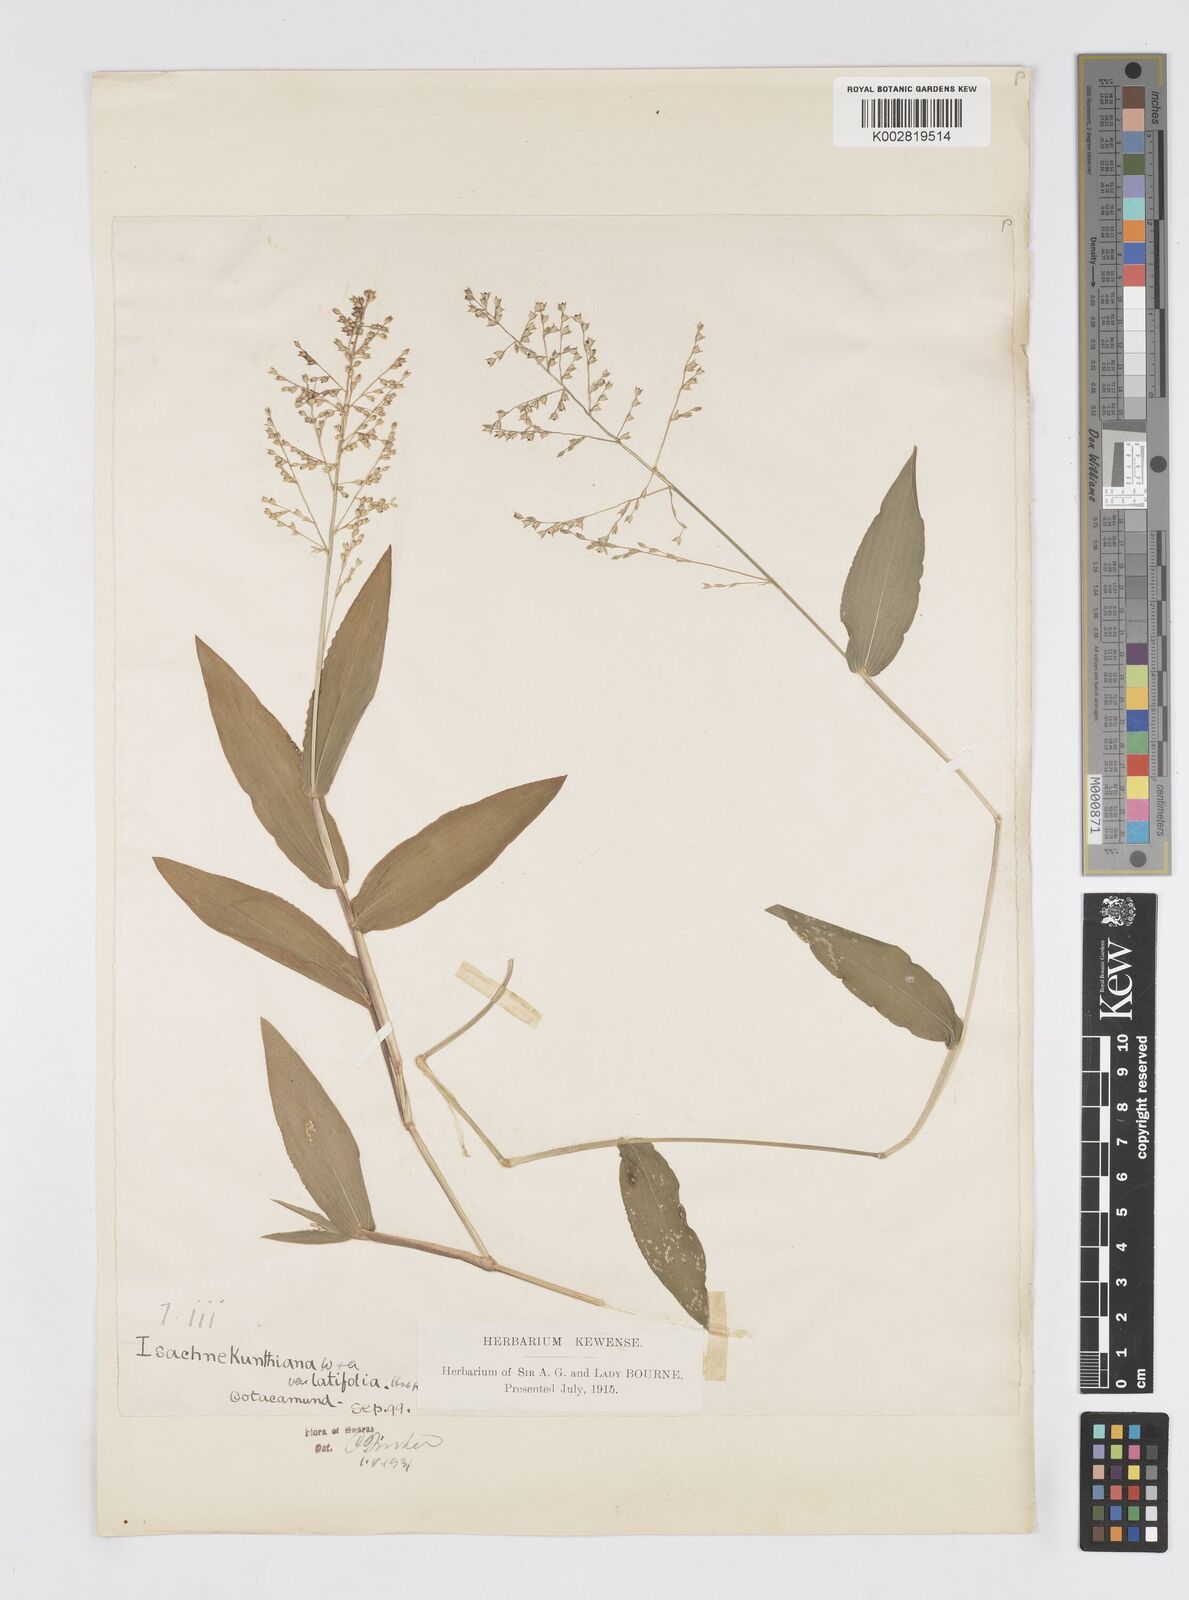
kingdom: Plantae
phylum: Tracheophyta
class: Liliopsida
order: Poales
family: Poaceae
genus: Isachne
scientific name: Isachne kunthiana
